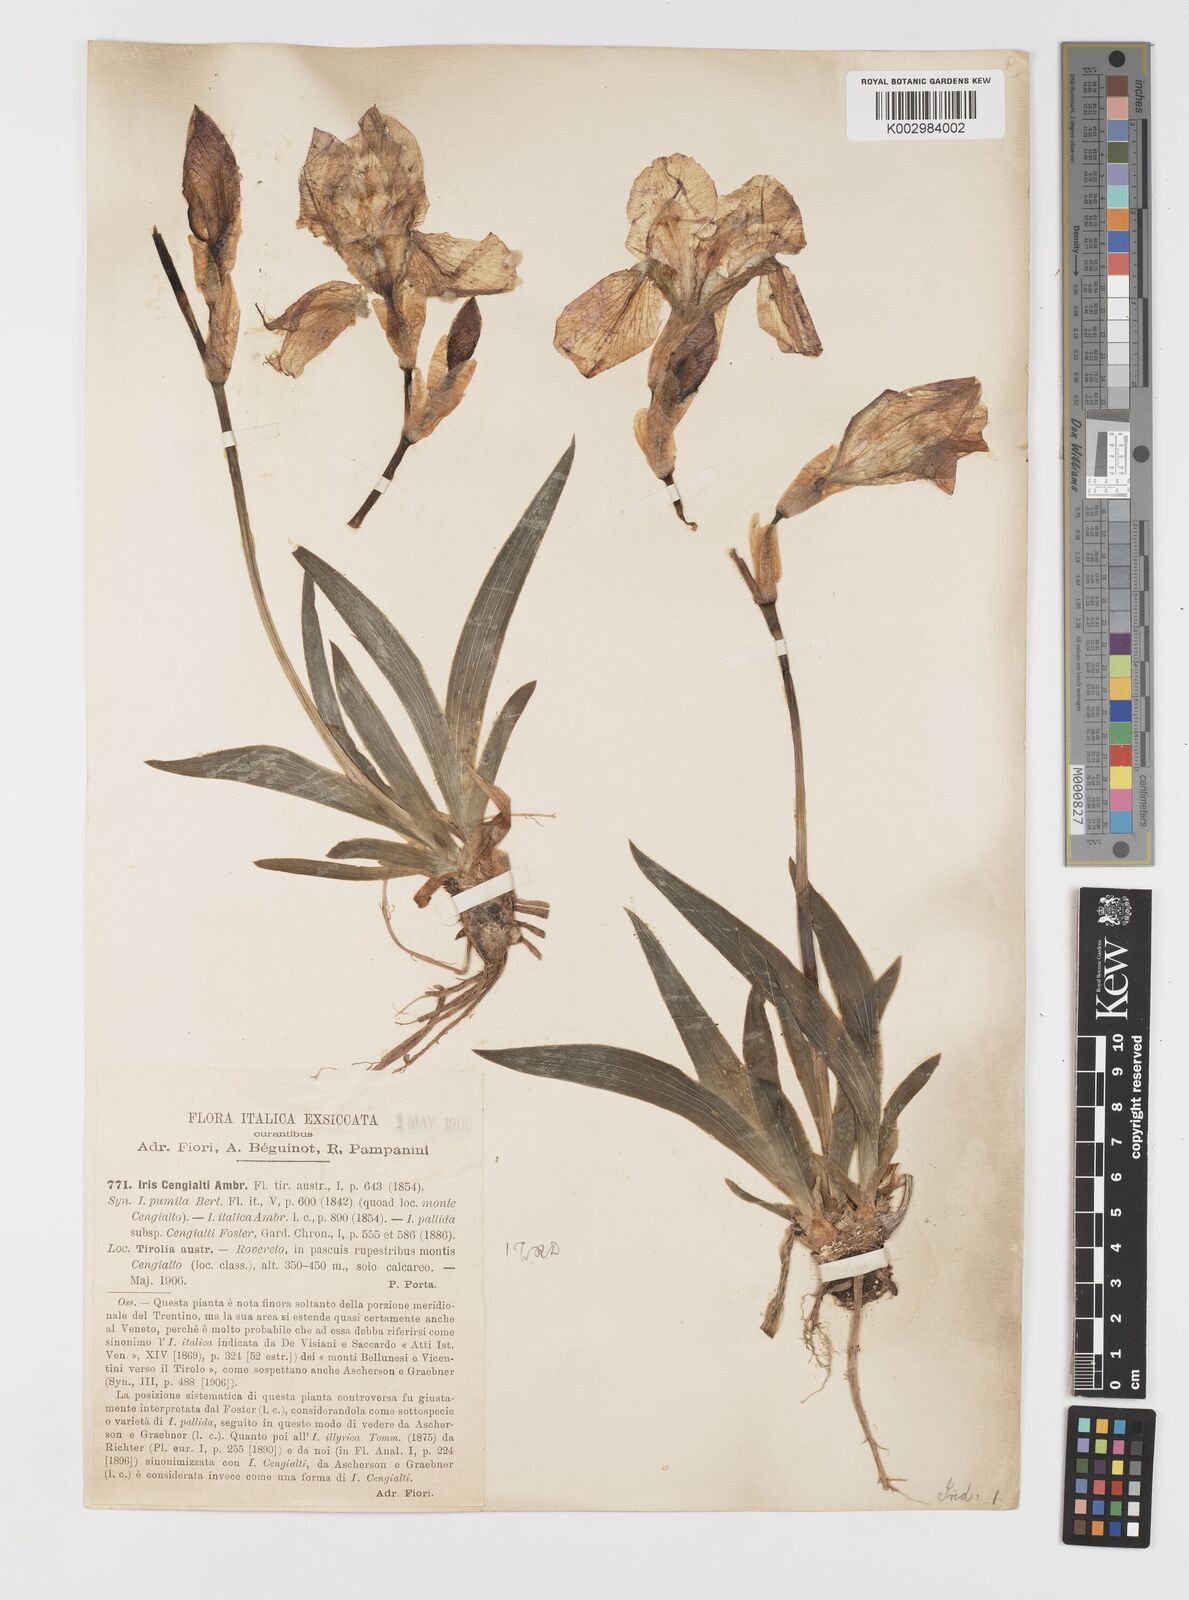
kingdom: Plantae
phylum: Tracheophyta
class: Liliopsida
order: Asparagales
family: Iridaceae
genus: Iris
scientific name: Iris pallida
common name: Sweet iris
